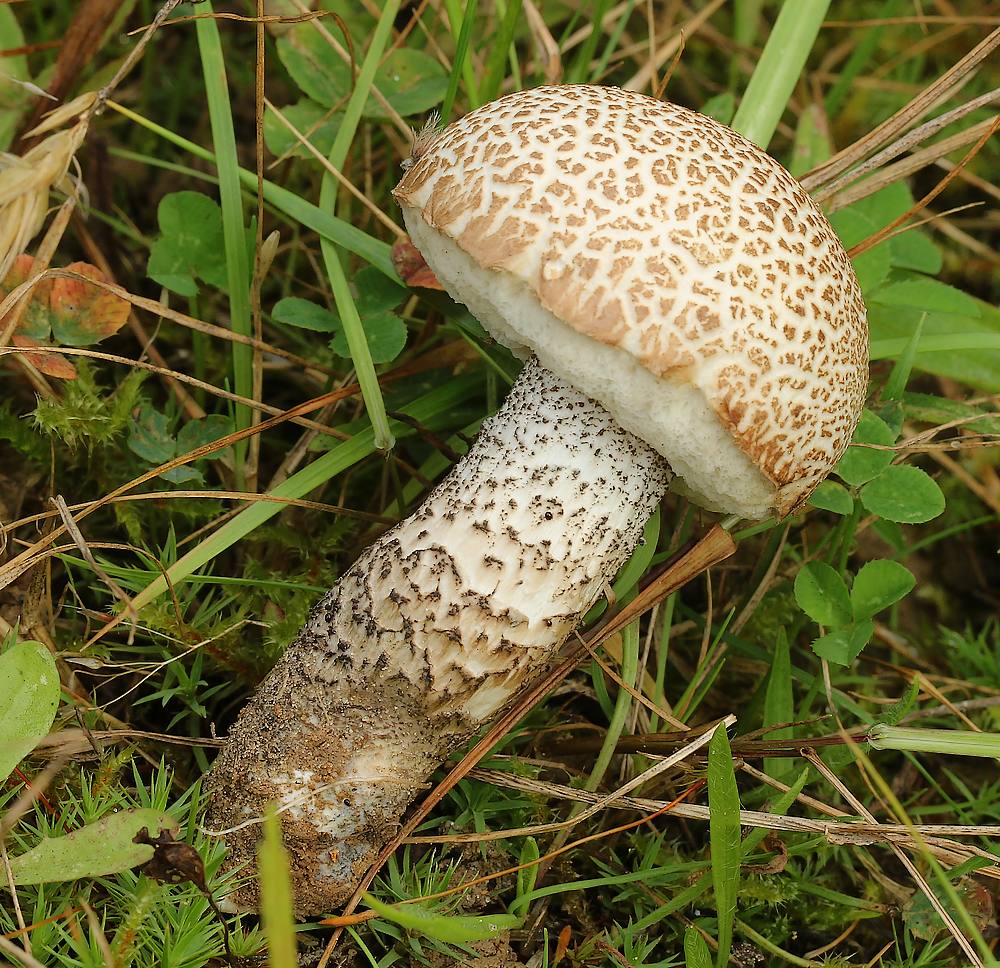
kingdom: Fungi
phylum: Basidiomycota
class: Agaricomycetes
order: Boletales
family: Boletaceae
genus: Leccinum
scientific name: Leccinum
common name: skælrørhat
